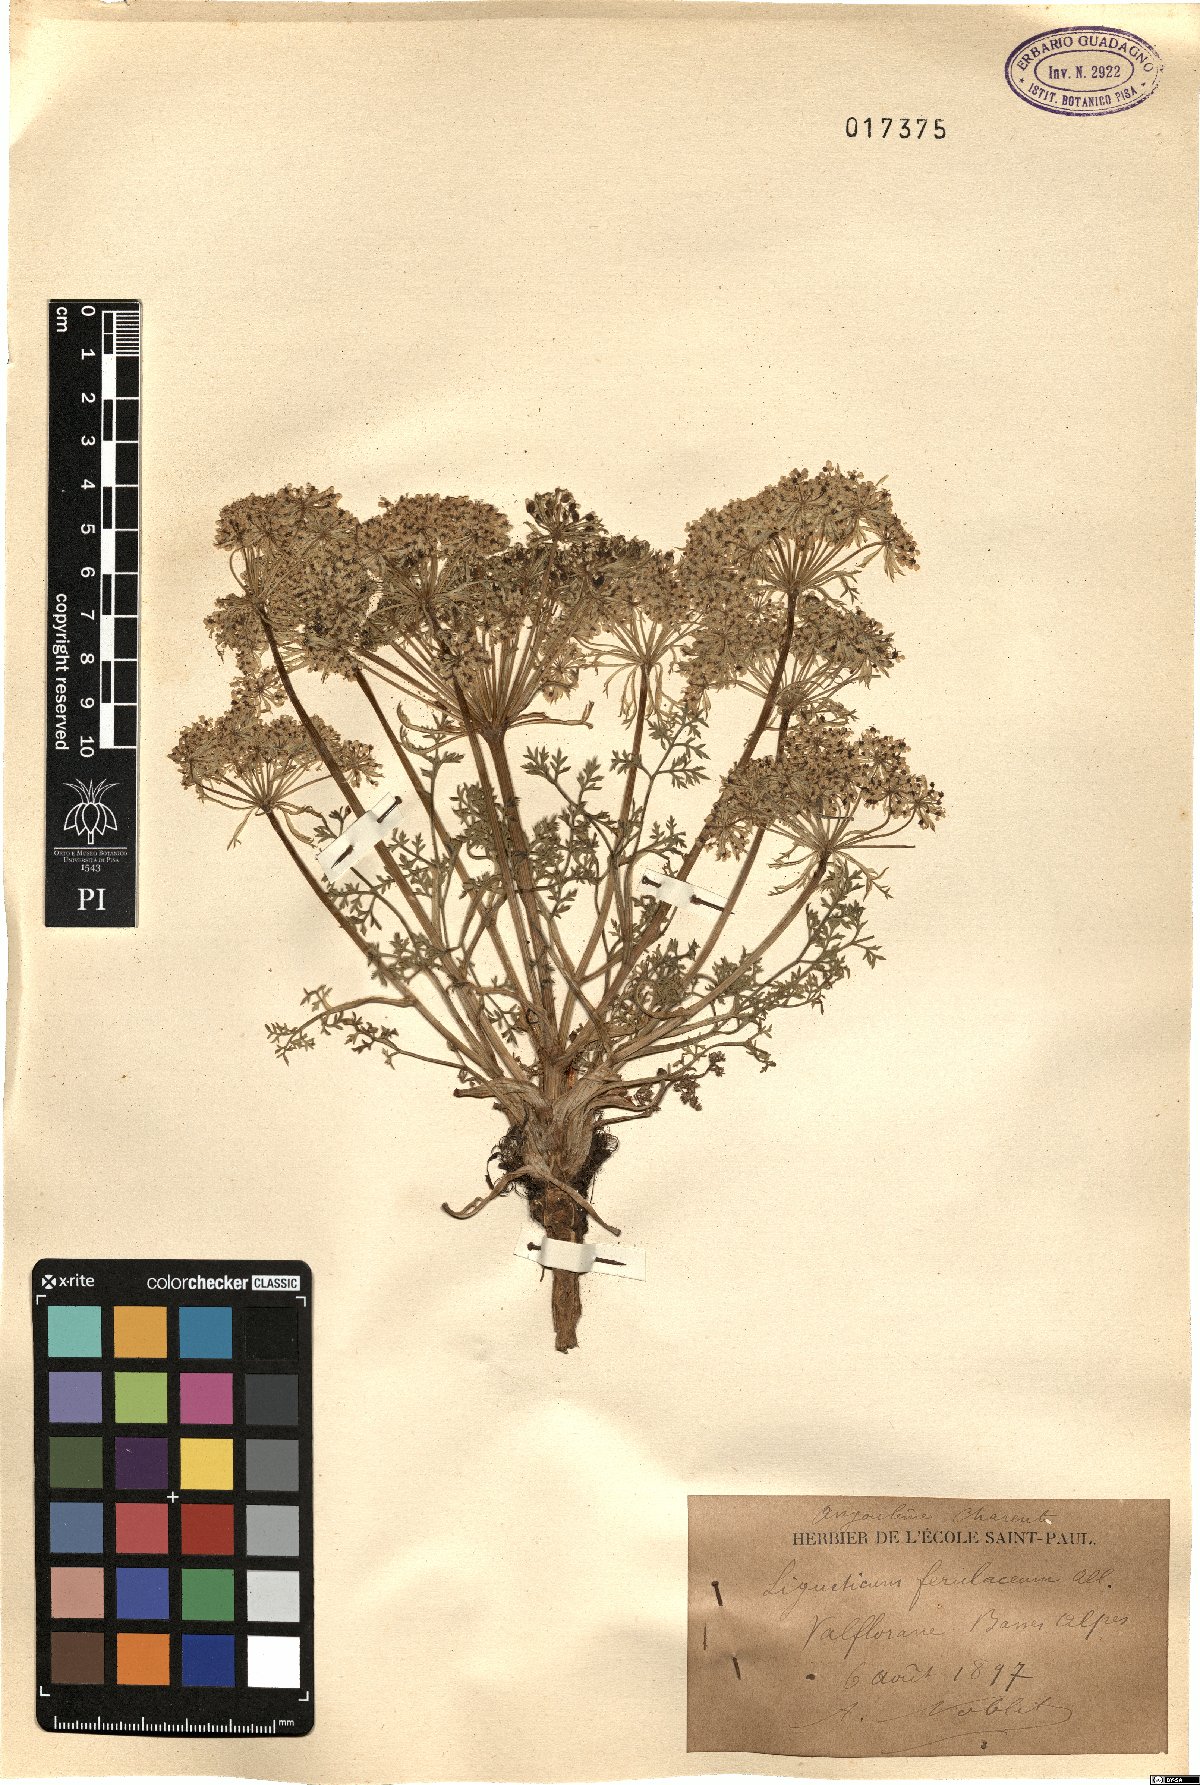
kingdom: Plantae
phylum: Tracheophyta
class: Magnoliopsida
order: Apiales
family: Apiaceae
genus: Coristospermum
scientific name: Coristospermum ferulaceum
